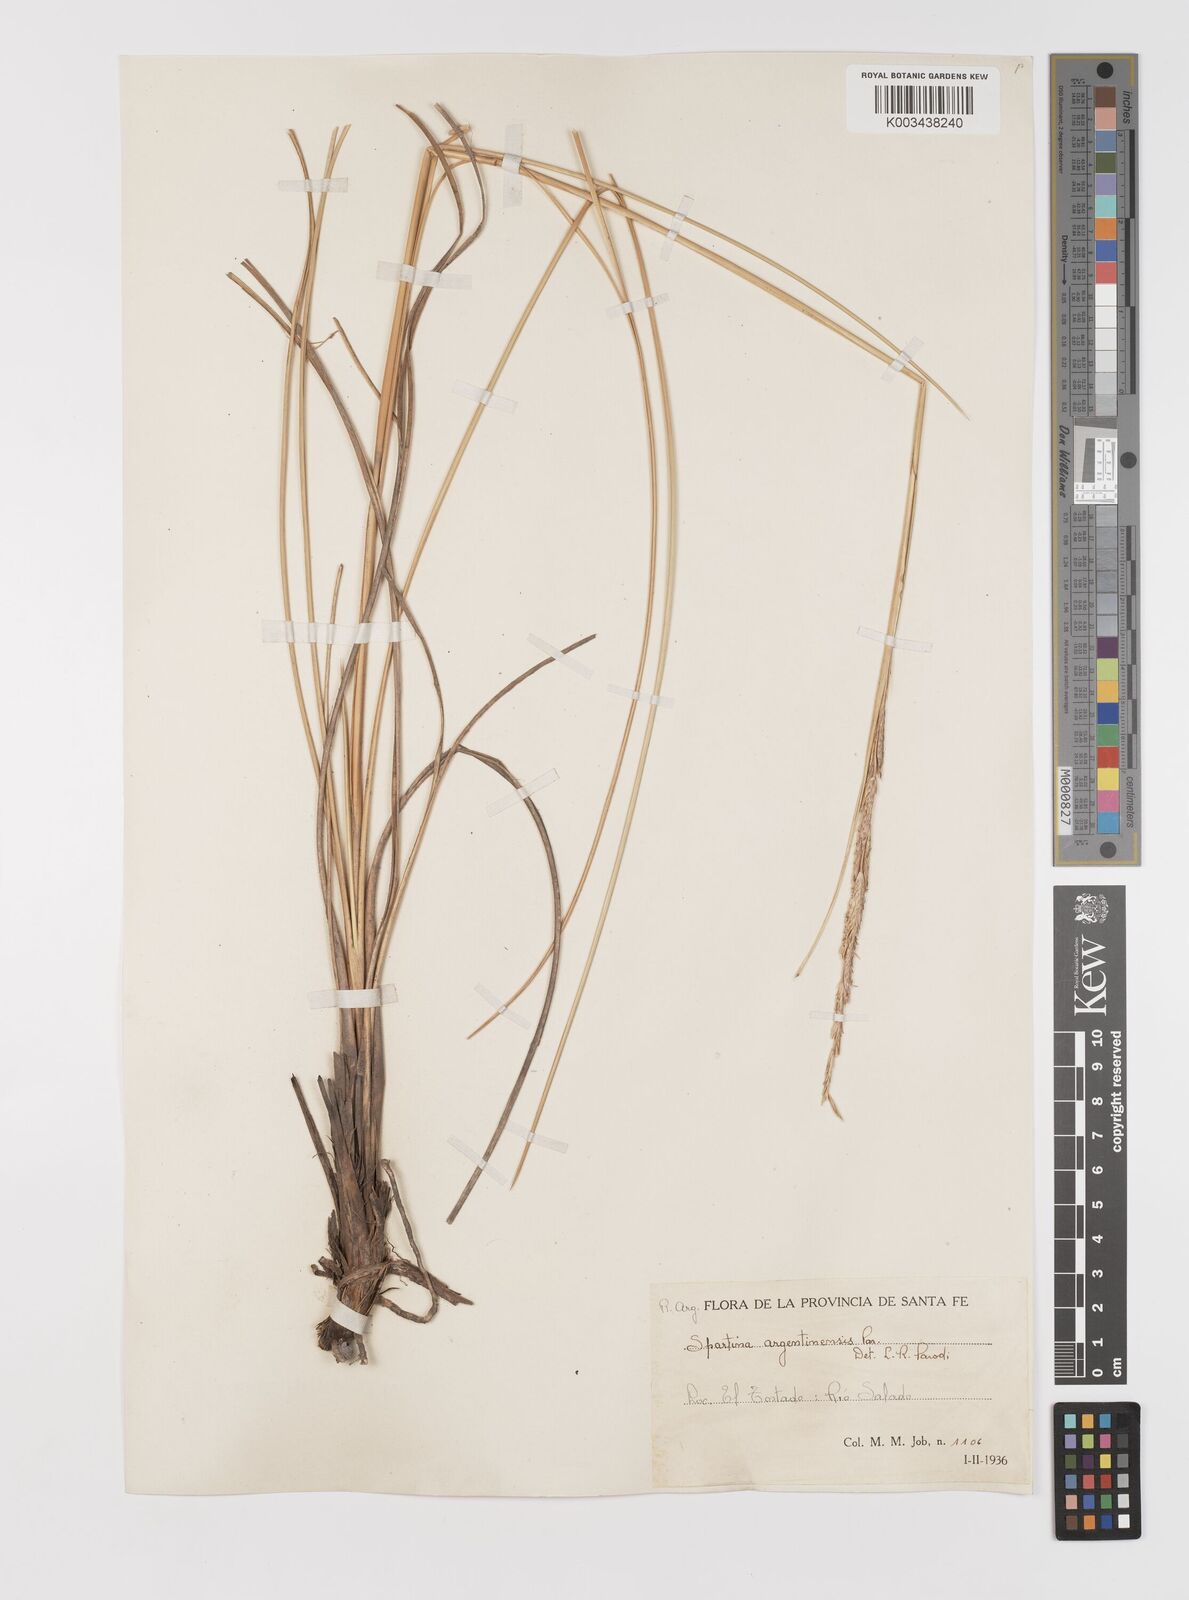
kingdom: Plantae
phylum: Tracheophyta
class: Liliopsida
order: Poales
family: Poaceae
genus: Sporobolus
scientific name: Sporobolus spartinae
